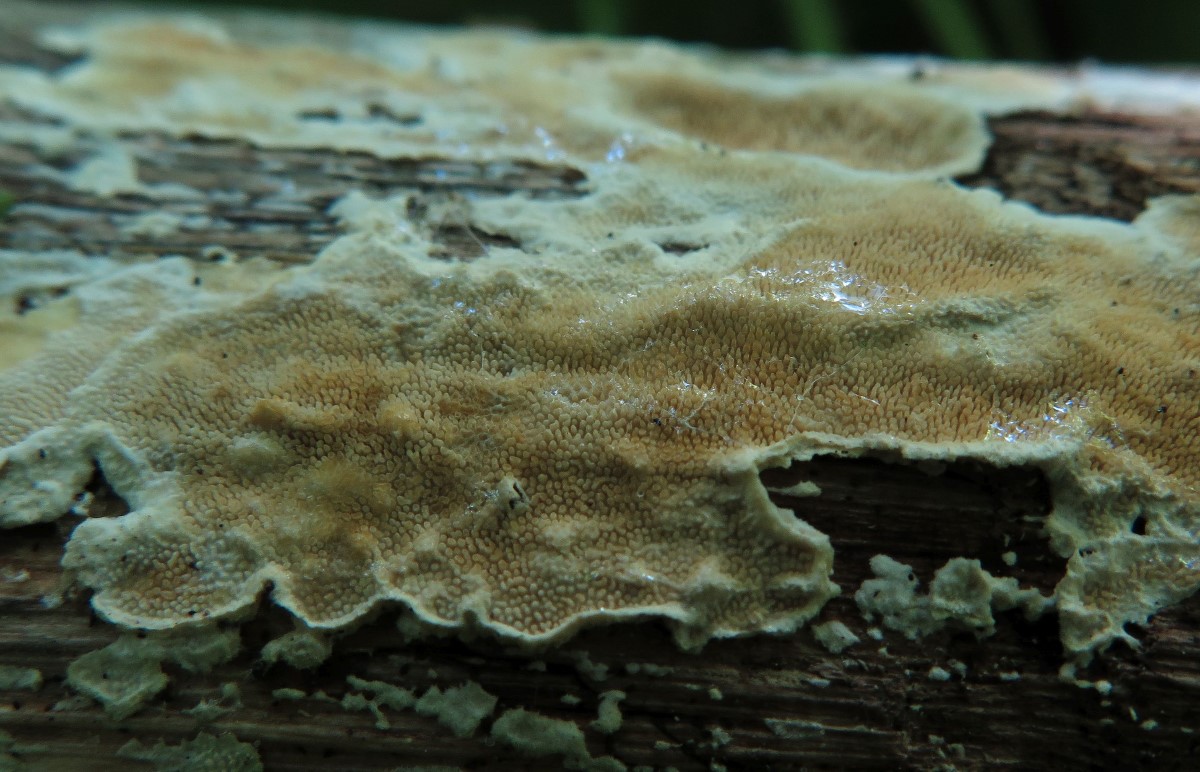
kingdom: Fungi
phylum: Basidiomycota
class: Agaricomycetes
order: Polyporales
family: Steccherinaceae
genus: Steccherinum
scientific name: Steccherinum ochraceum
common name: almindelig skønpig
